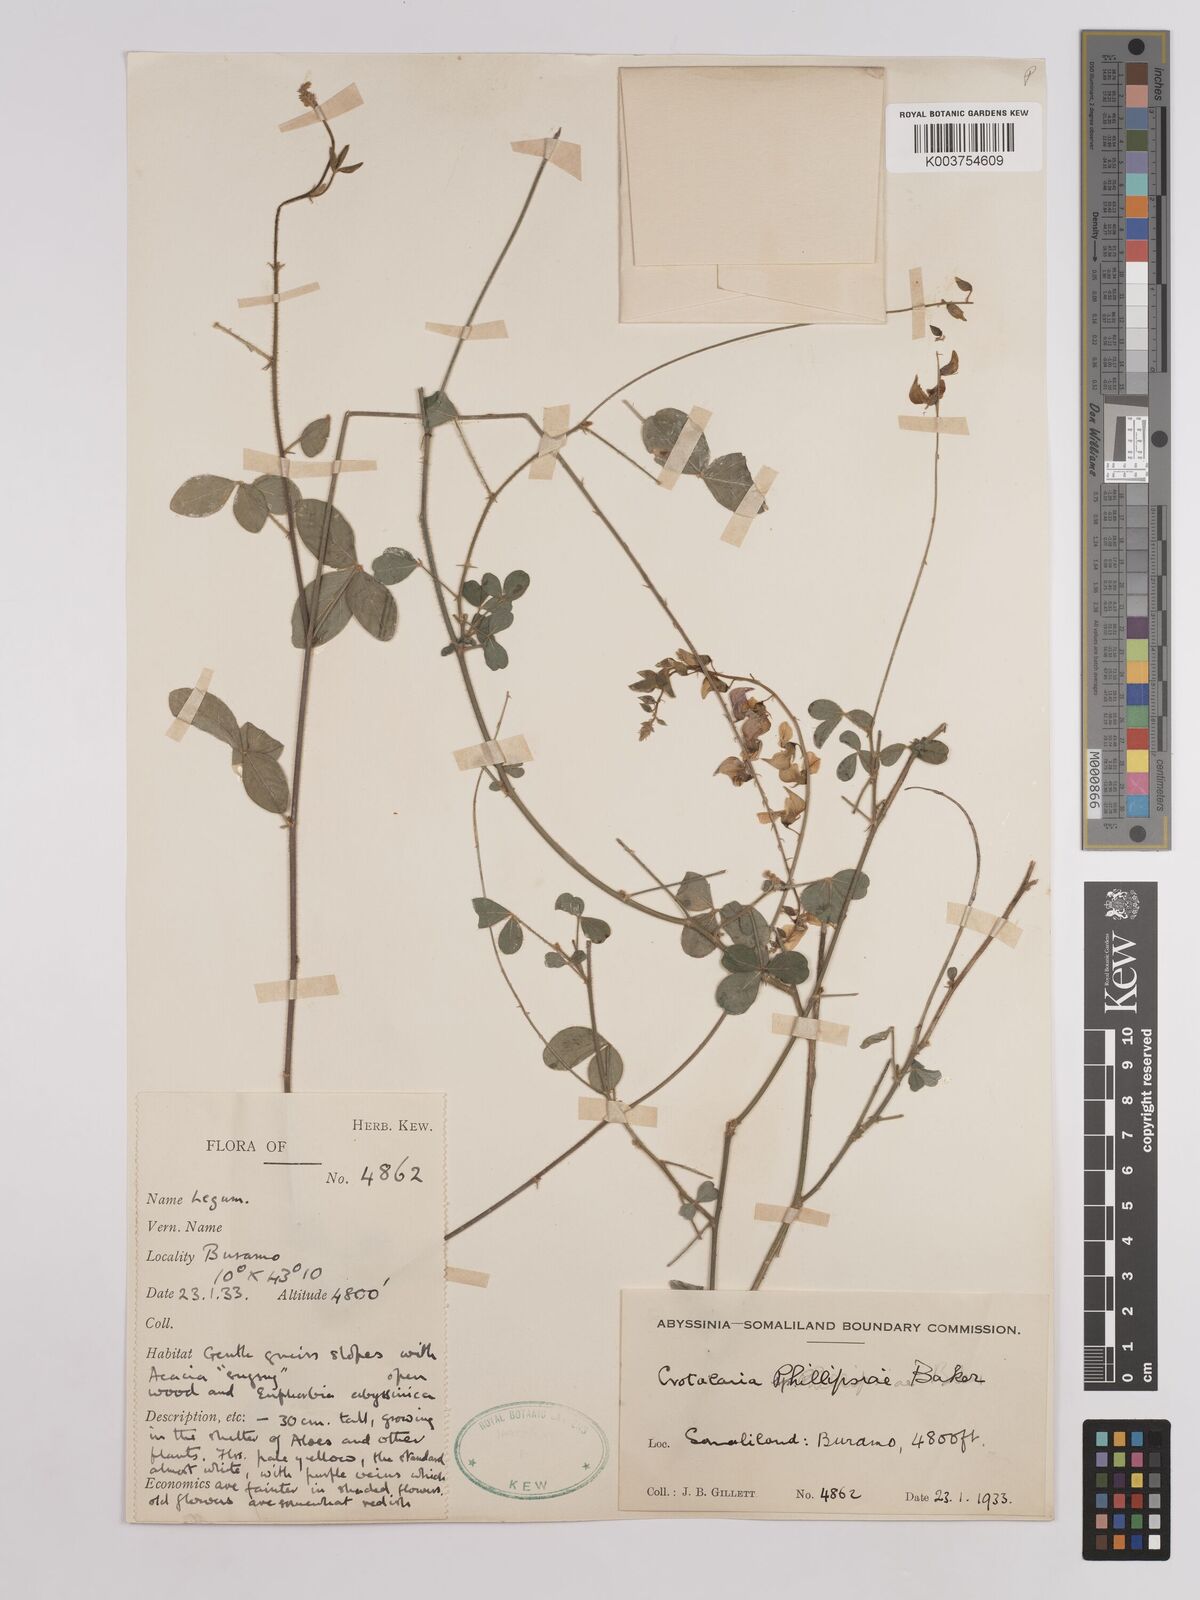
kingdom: Plantae
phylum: Tracheophyta
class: Magnoliopsida
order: Fabales
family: Fabaceae
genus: Crotalaria
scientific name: Crotalaria phillipsiae
